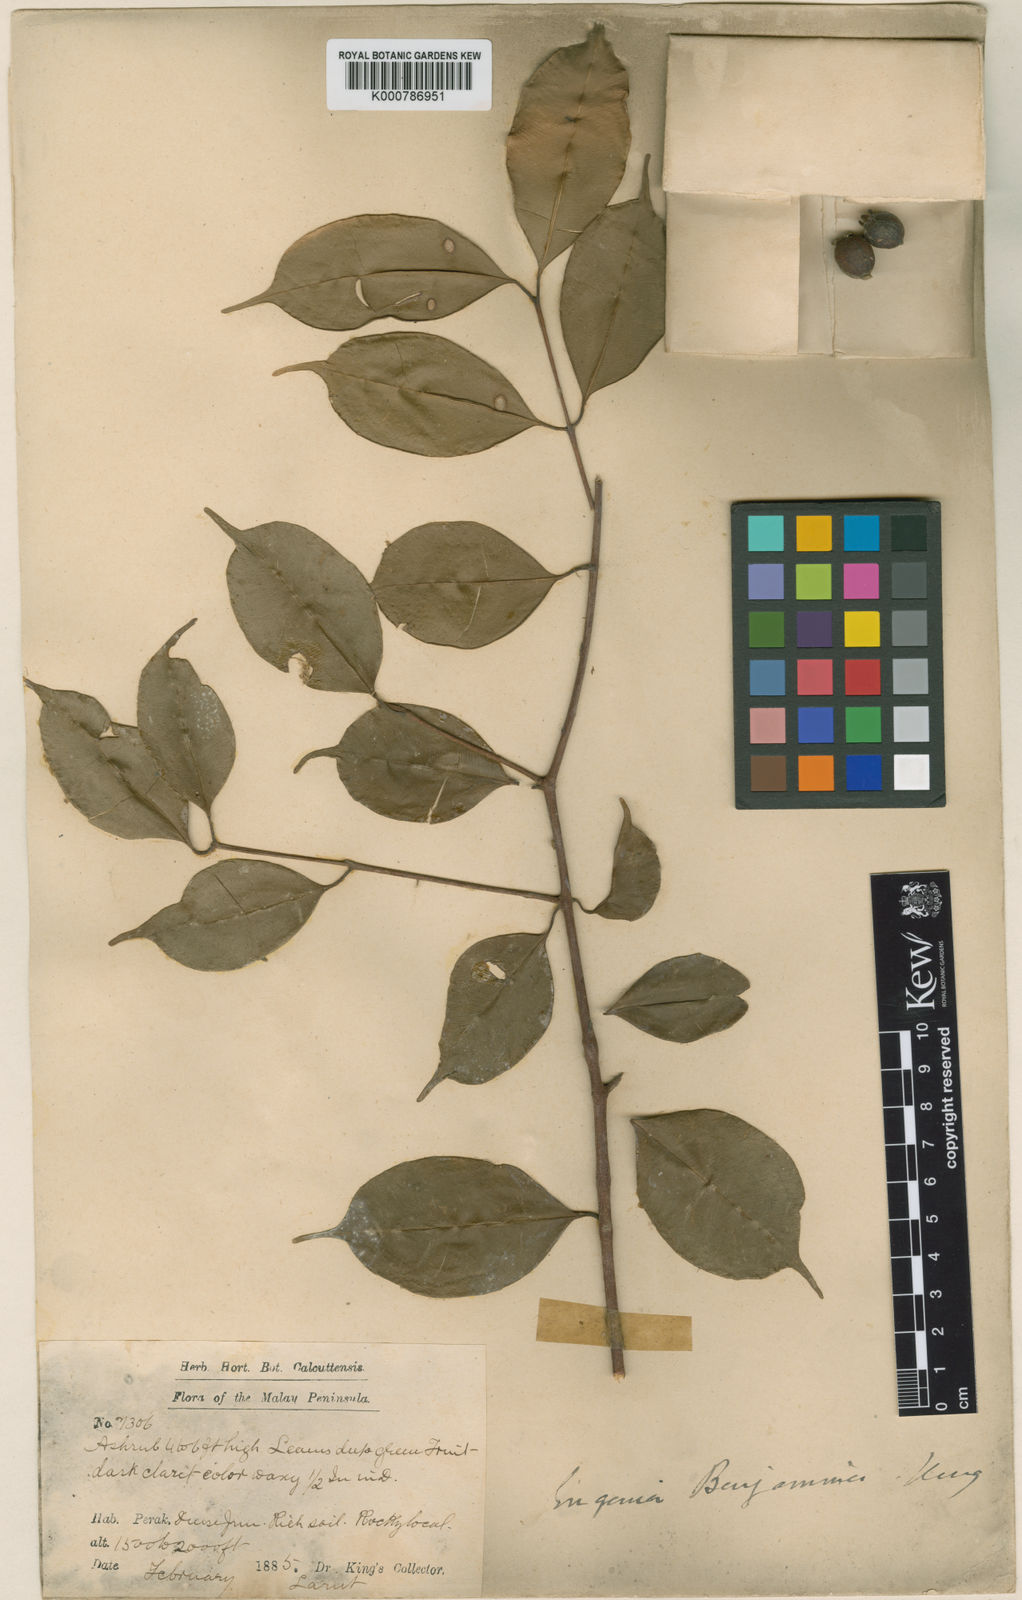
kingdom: Plantae
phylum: Tracheophyta
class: Magnoliopsida
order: Myrtales
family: Myrtaceae
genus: Syzygium
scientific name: Syzygium benjaminum
